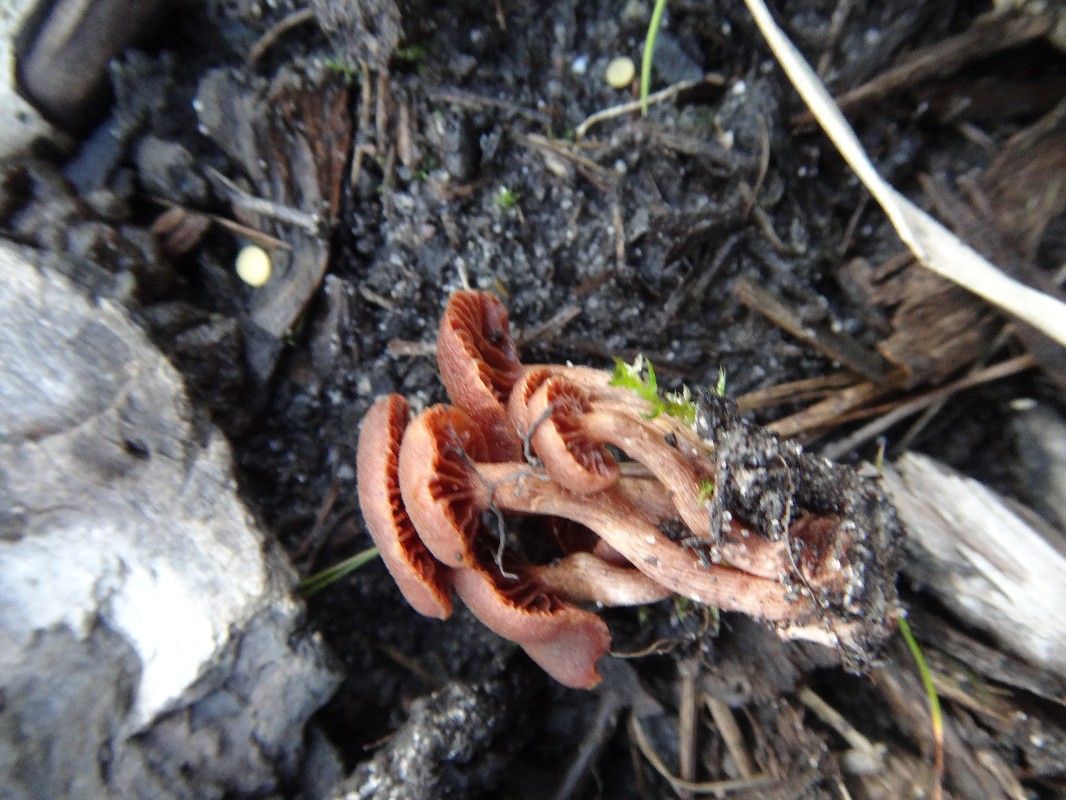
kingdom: Fungi
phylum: Basidiomycota
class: Agaricomycetes
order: Agaricales
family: Tubariaceae
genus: Tubaria
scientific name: Tubaria furfuracea
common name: kliddet fnughat
